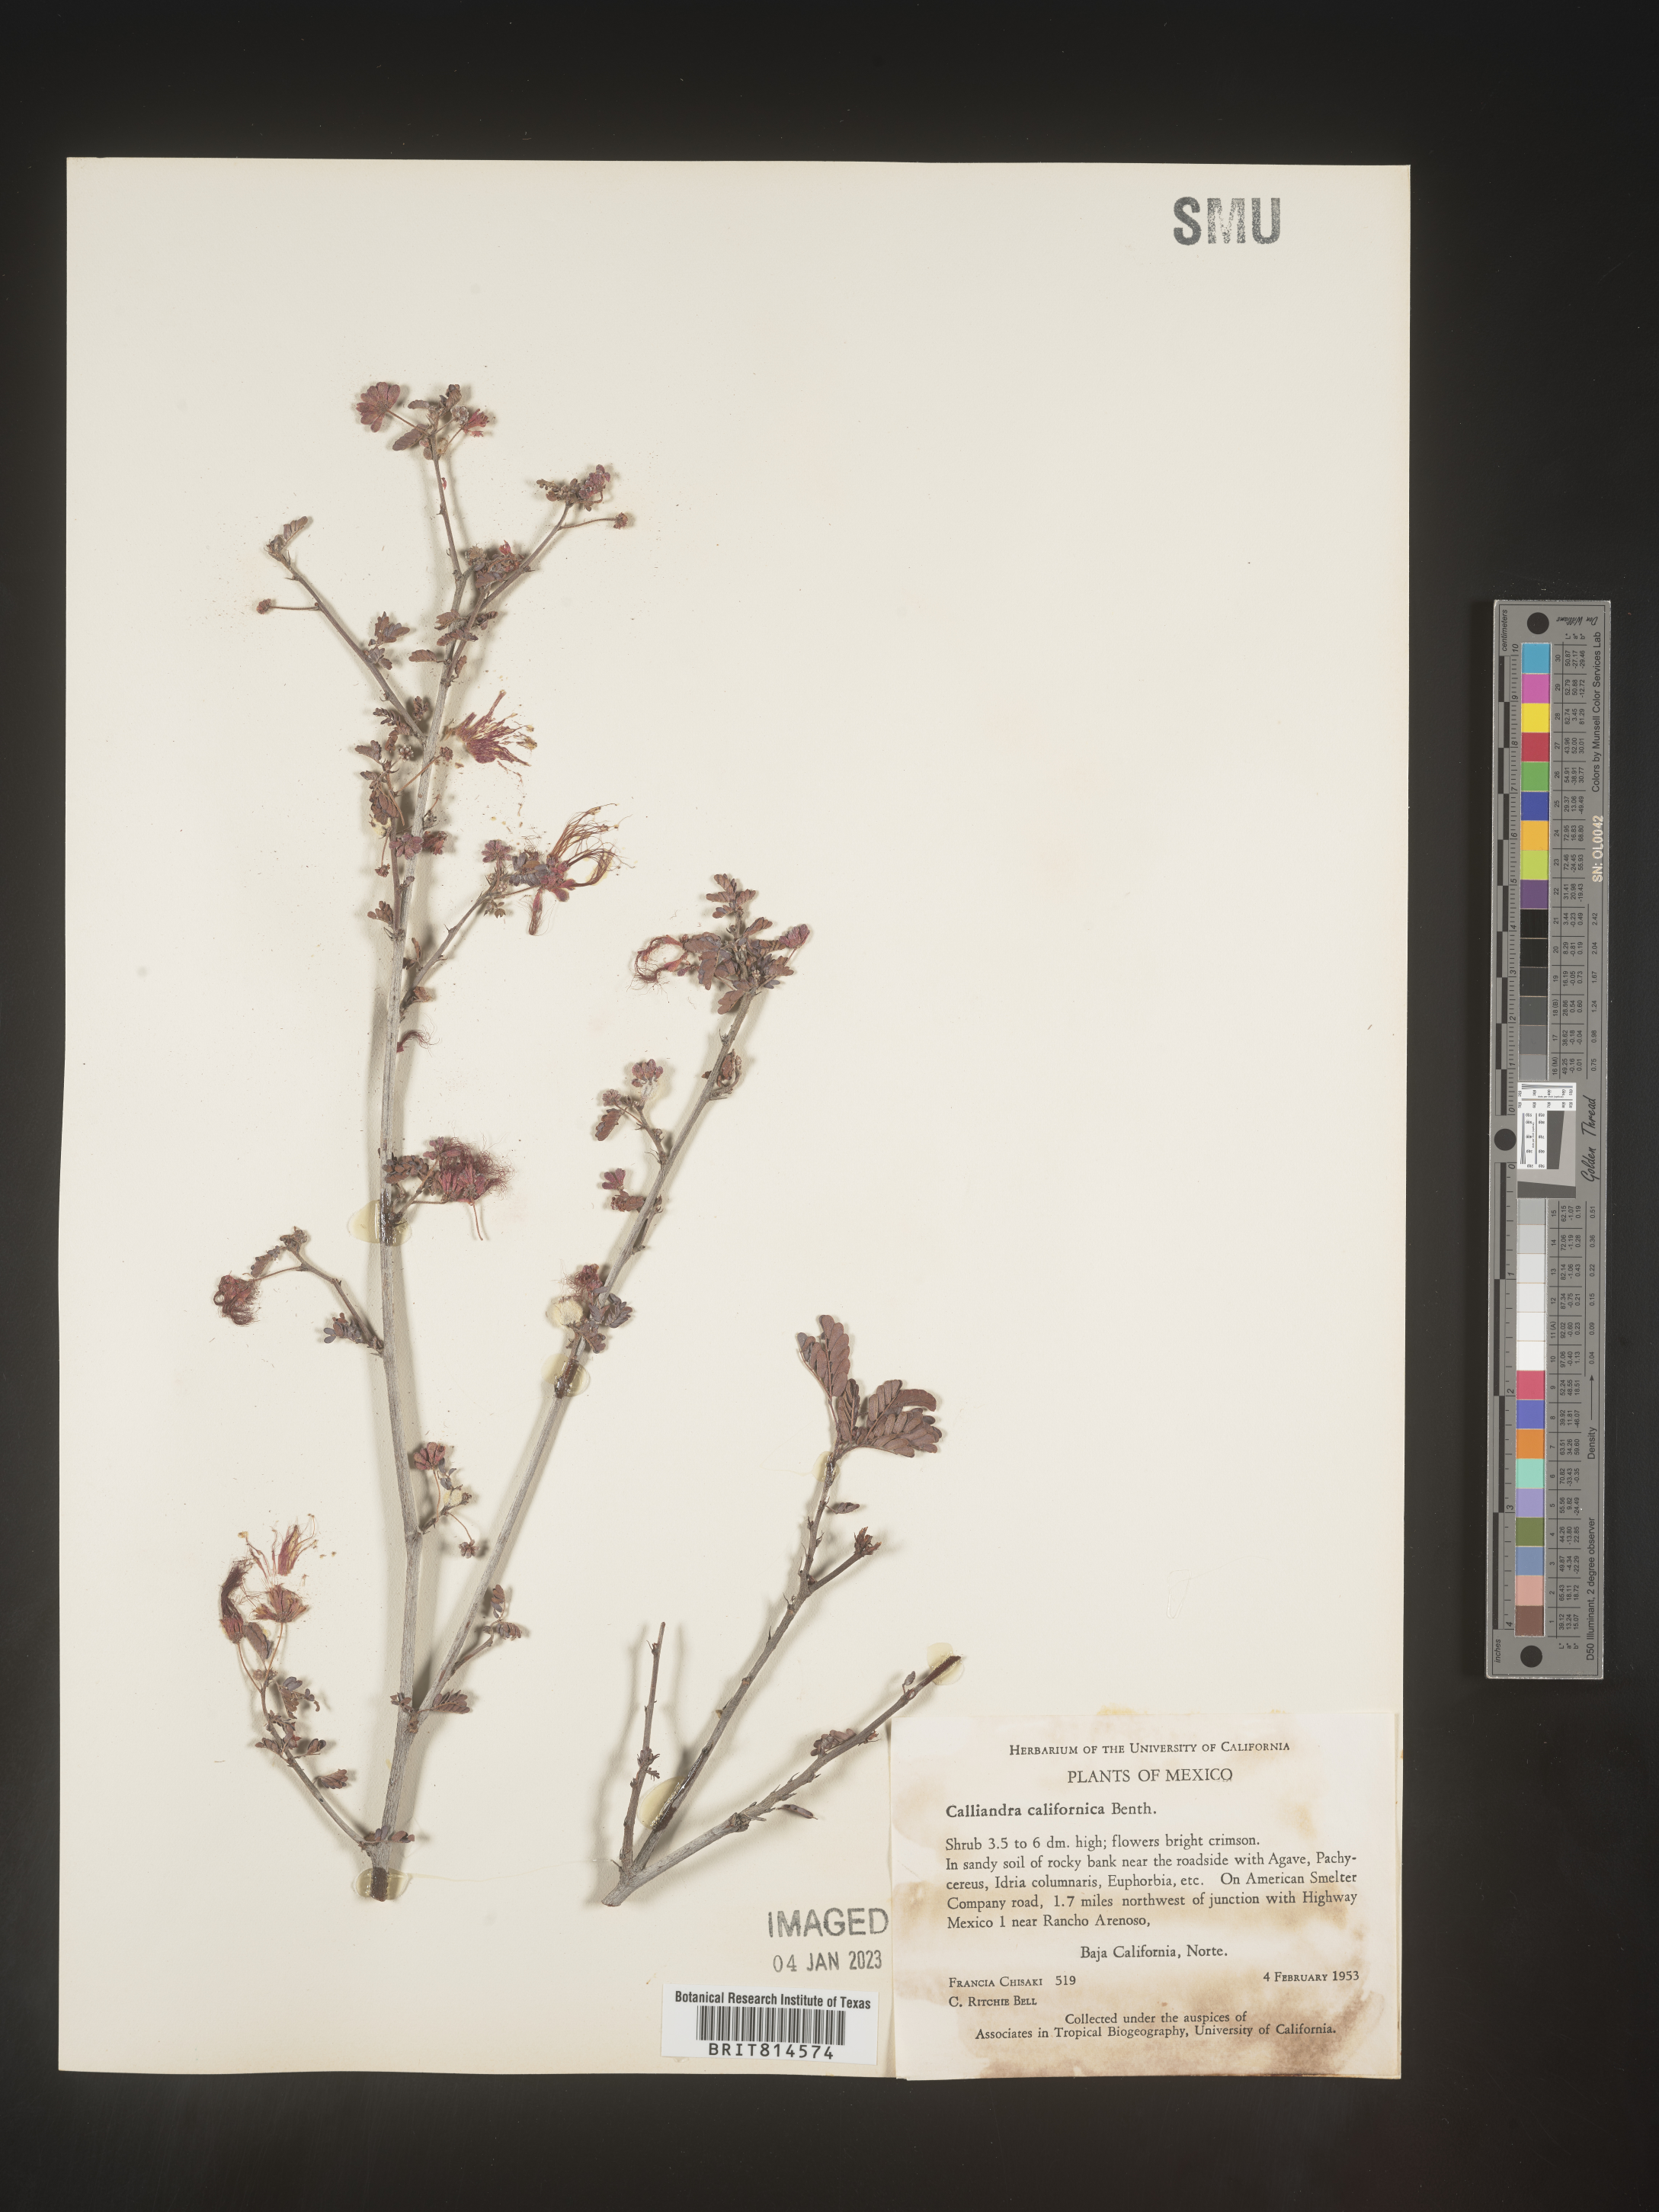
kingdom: Plantae
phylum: Tracheophyta
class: Magnoliopsida
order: Fabales
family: Fabaceae
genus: Calliandra
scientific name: Calliandra
